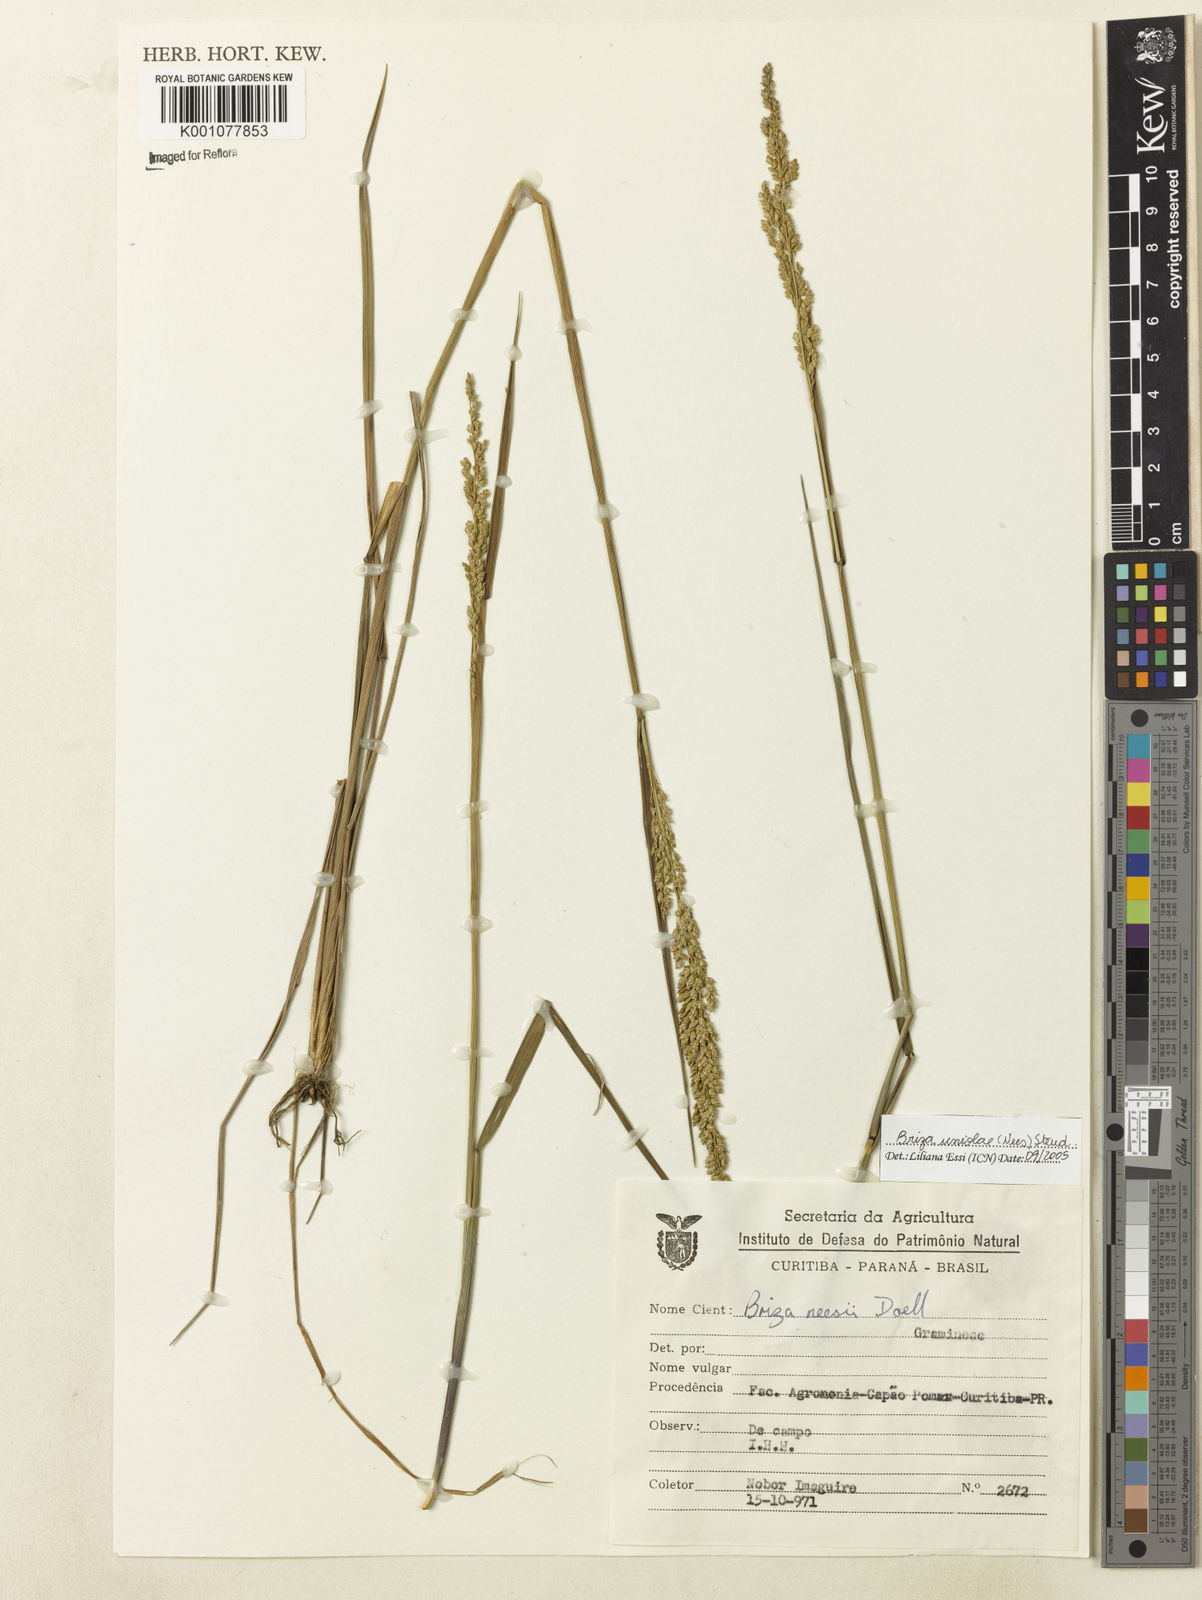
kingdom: Plantae
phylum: Tracheophyta
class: Liliopsida
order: Poales
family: Poaceae
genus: Poidium
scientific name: Poidium calotheca
